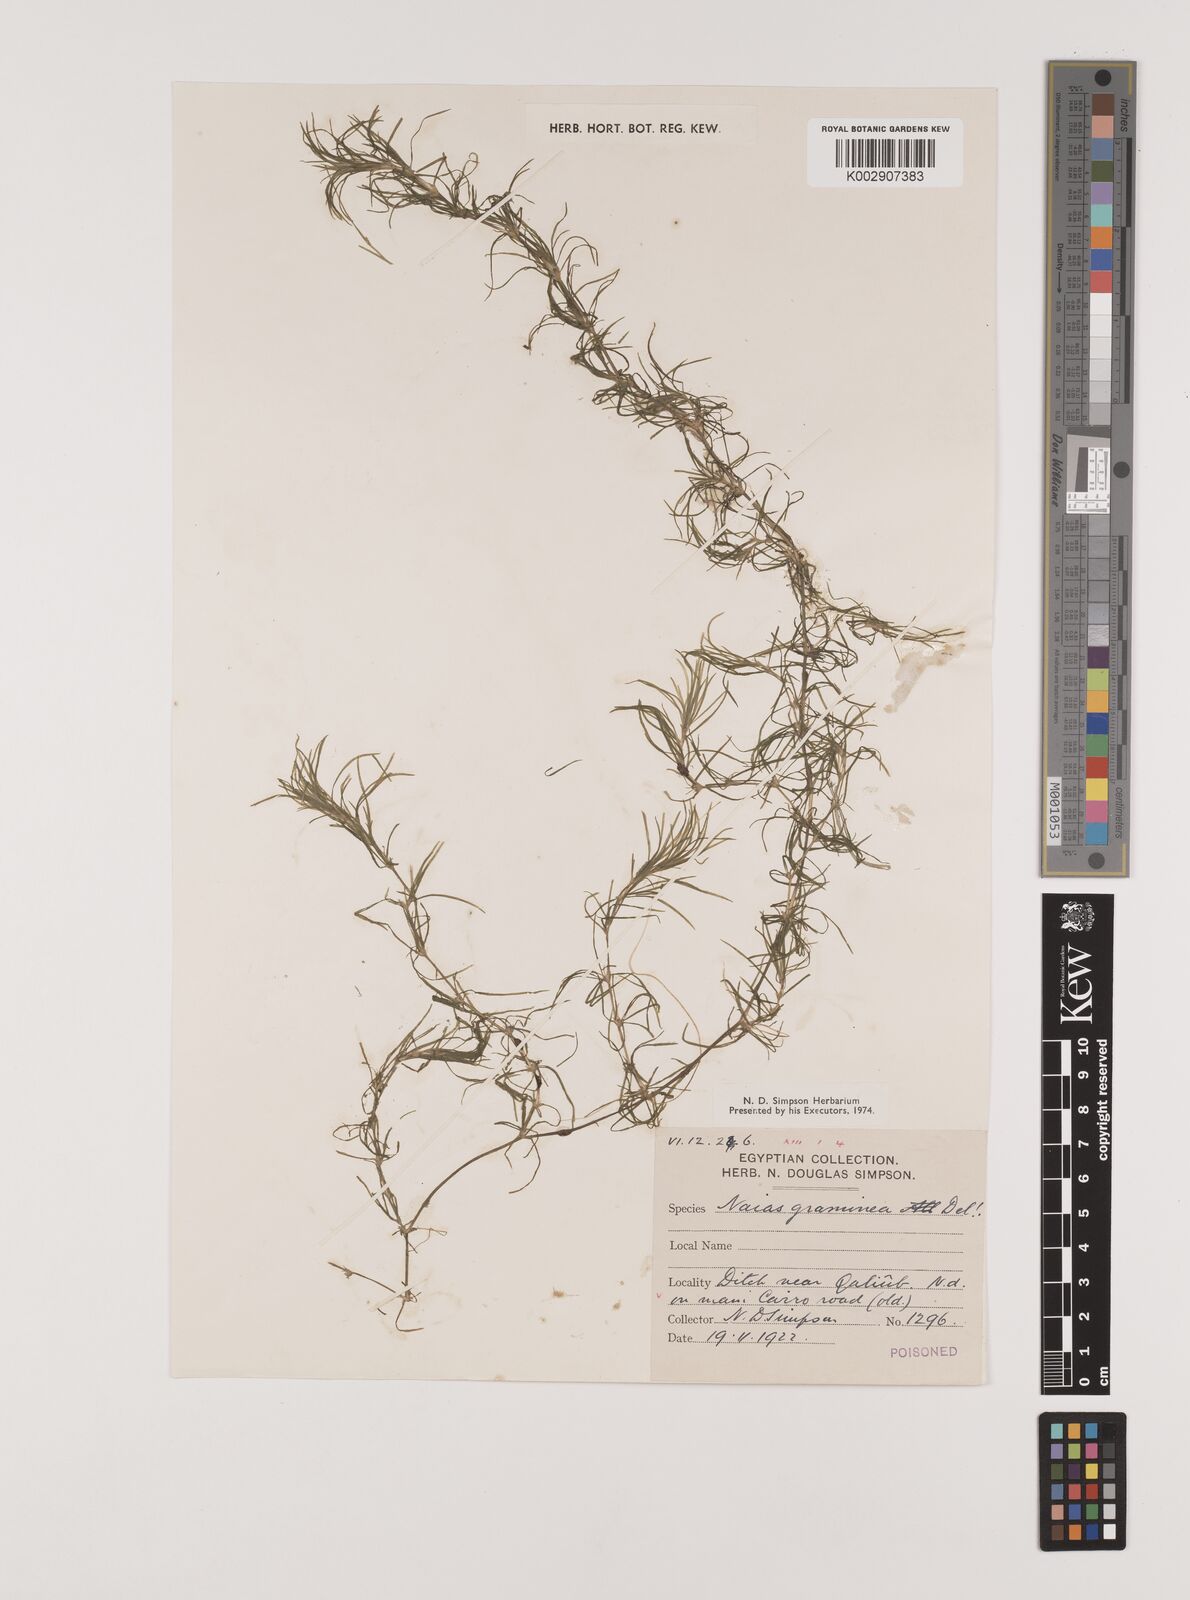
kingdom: Plantae
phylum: Tracheophyta
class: Liliopsida
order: Alismatales
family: Hydrocharitaceae
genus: Najas
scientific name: Najas graminea
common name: Ricefield waternymph
